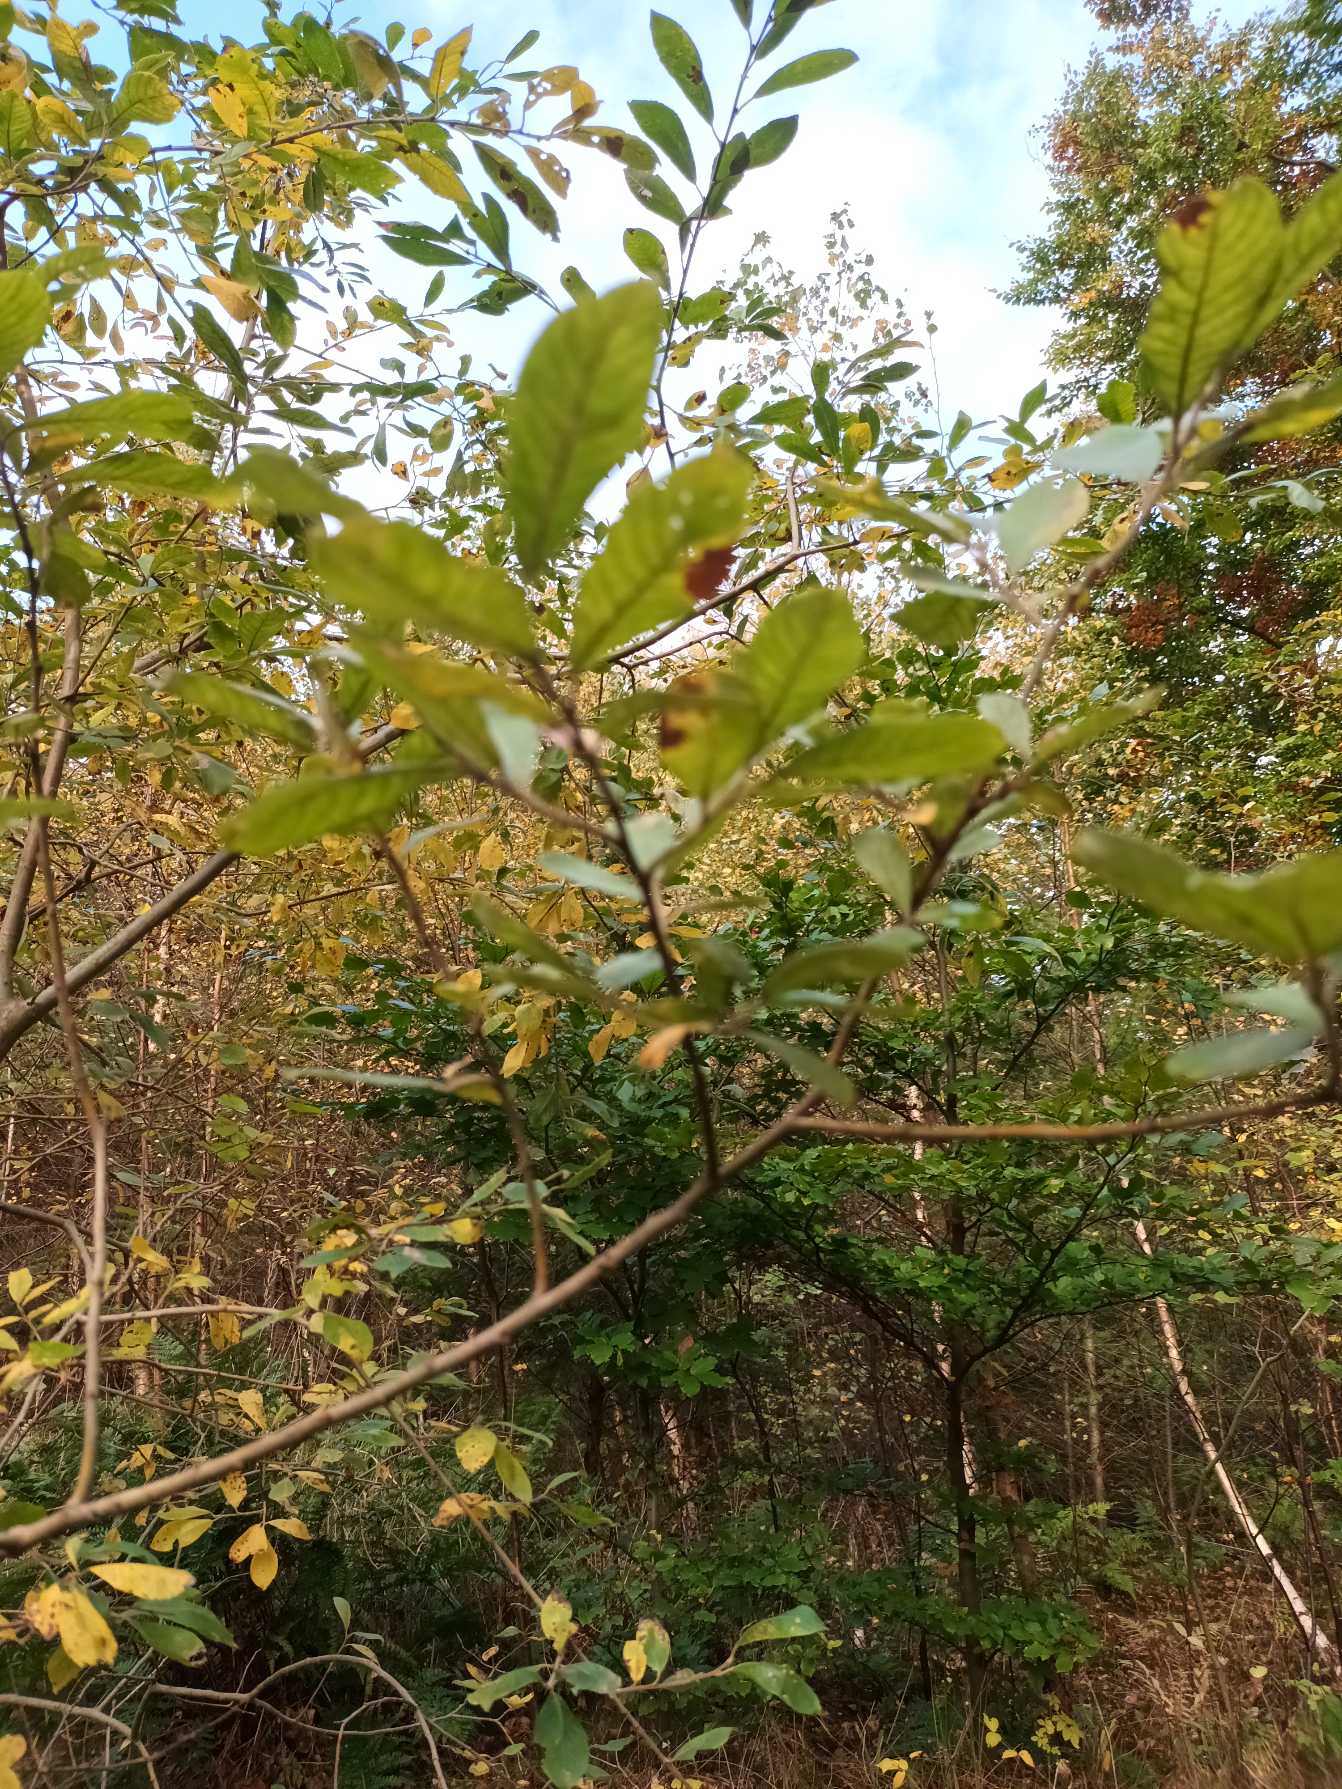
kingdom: Plantae
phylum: Tracheophyta
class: Magnoliopsida
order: Malpighiales
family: Salicaceae
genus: Salix
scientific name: Salix cinerea
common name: Grå-pil
